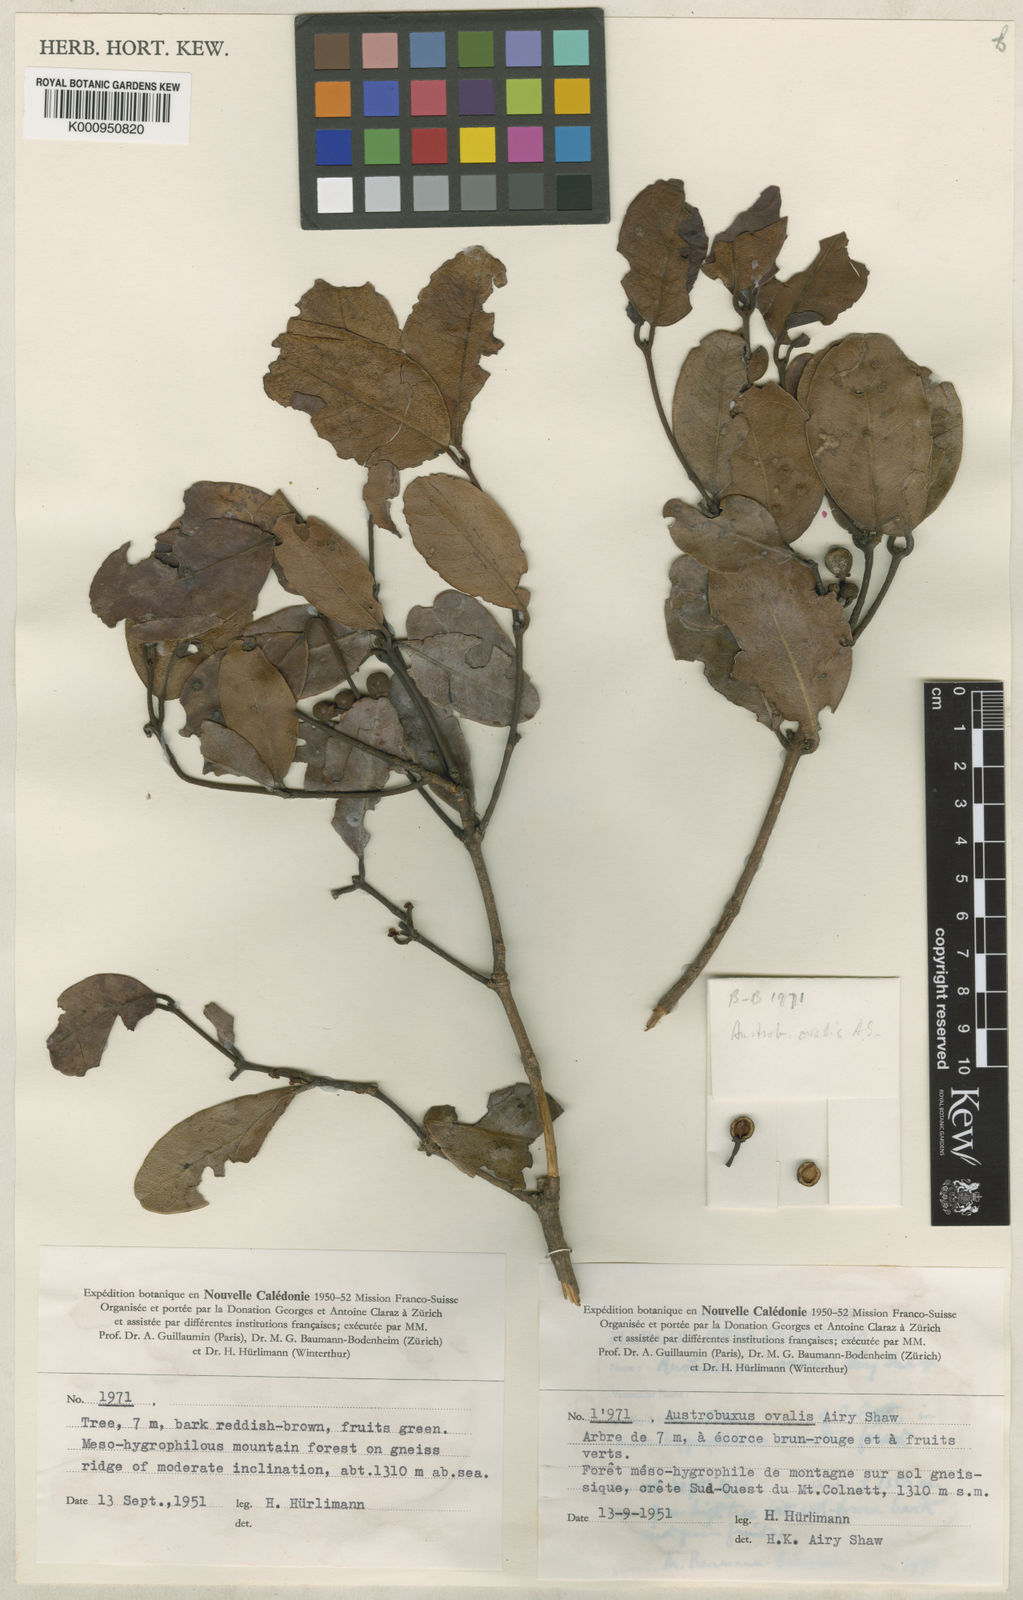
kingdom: Plantae
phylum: Tracheophyta
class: Magnoliopsida
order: Malpighiales
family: Picrodendraceae
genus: Austrobuxus
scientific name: Austrobuxus ovalis
